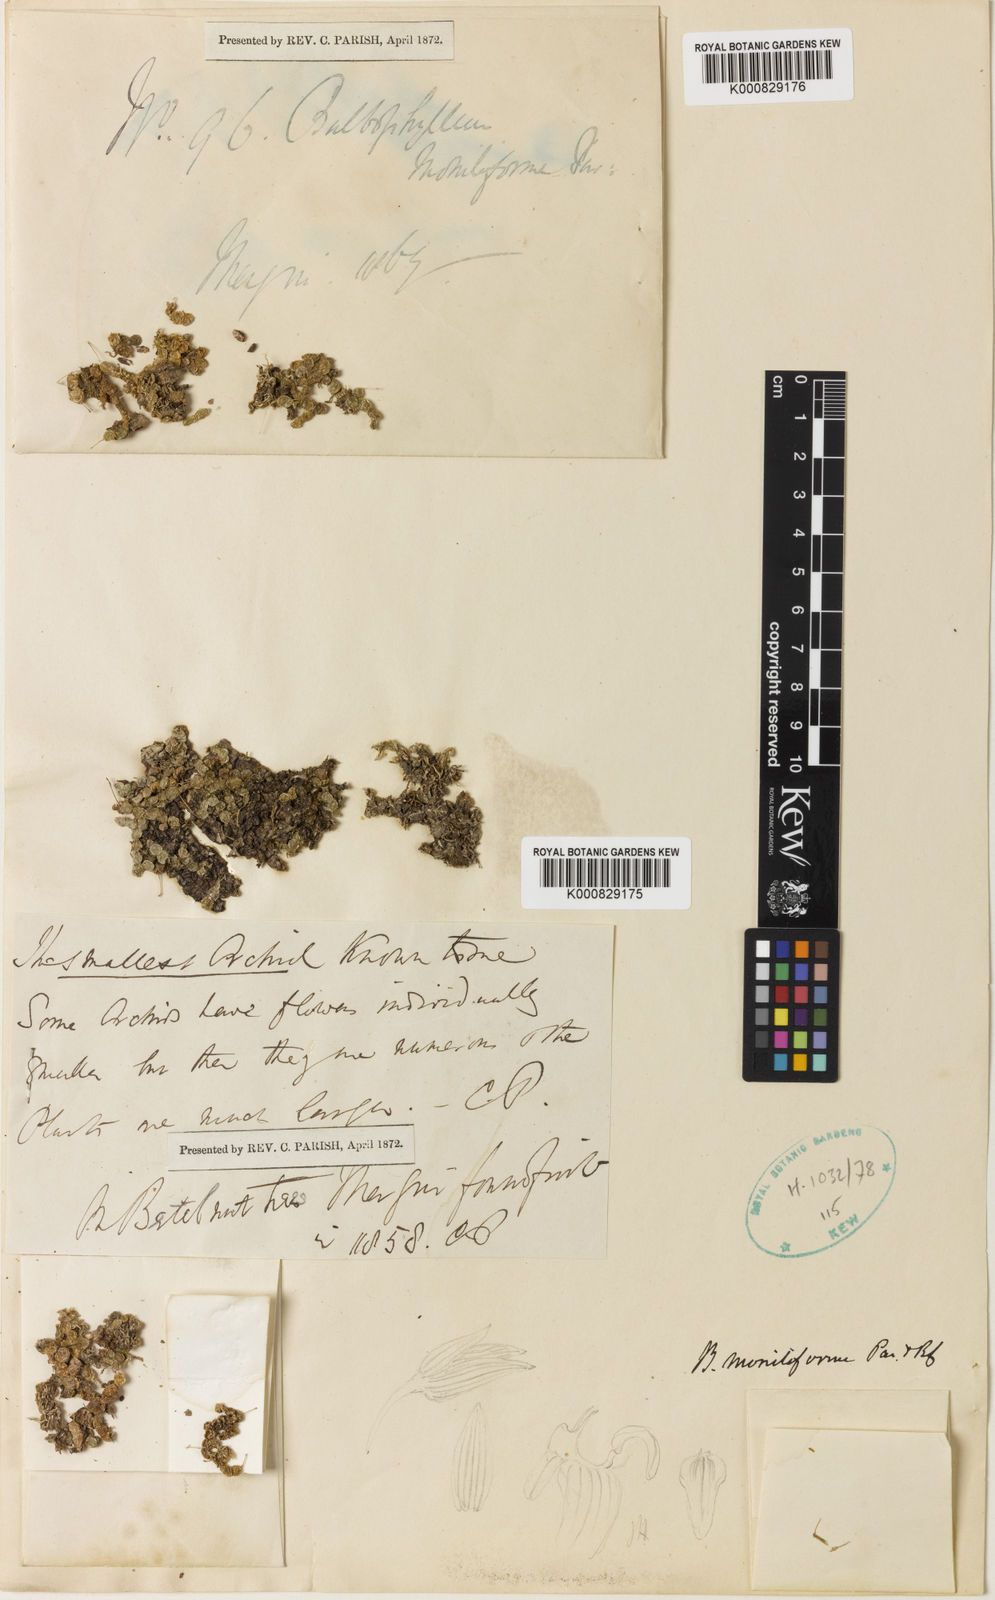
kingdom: Plantae
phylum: Tracheophyta
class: Liliopsida
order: Asparagales
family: Orchidaceae
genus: Bulbophyllum
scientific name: Bulbophyllum moniliforme
